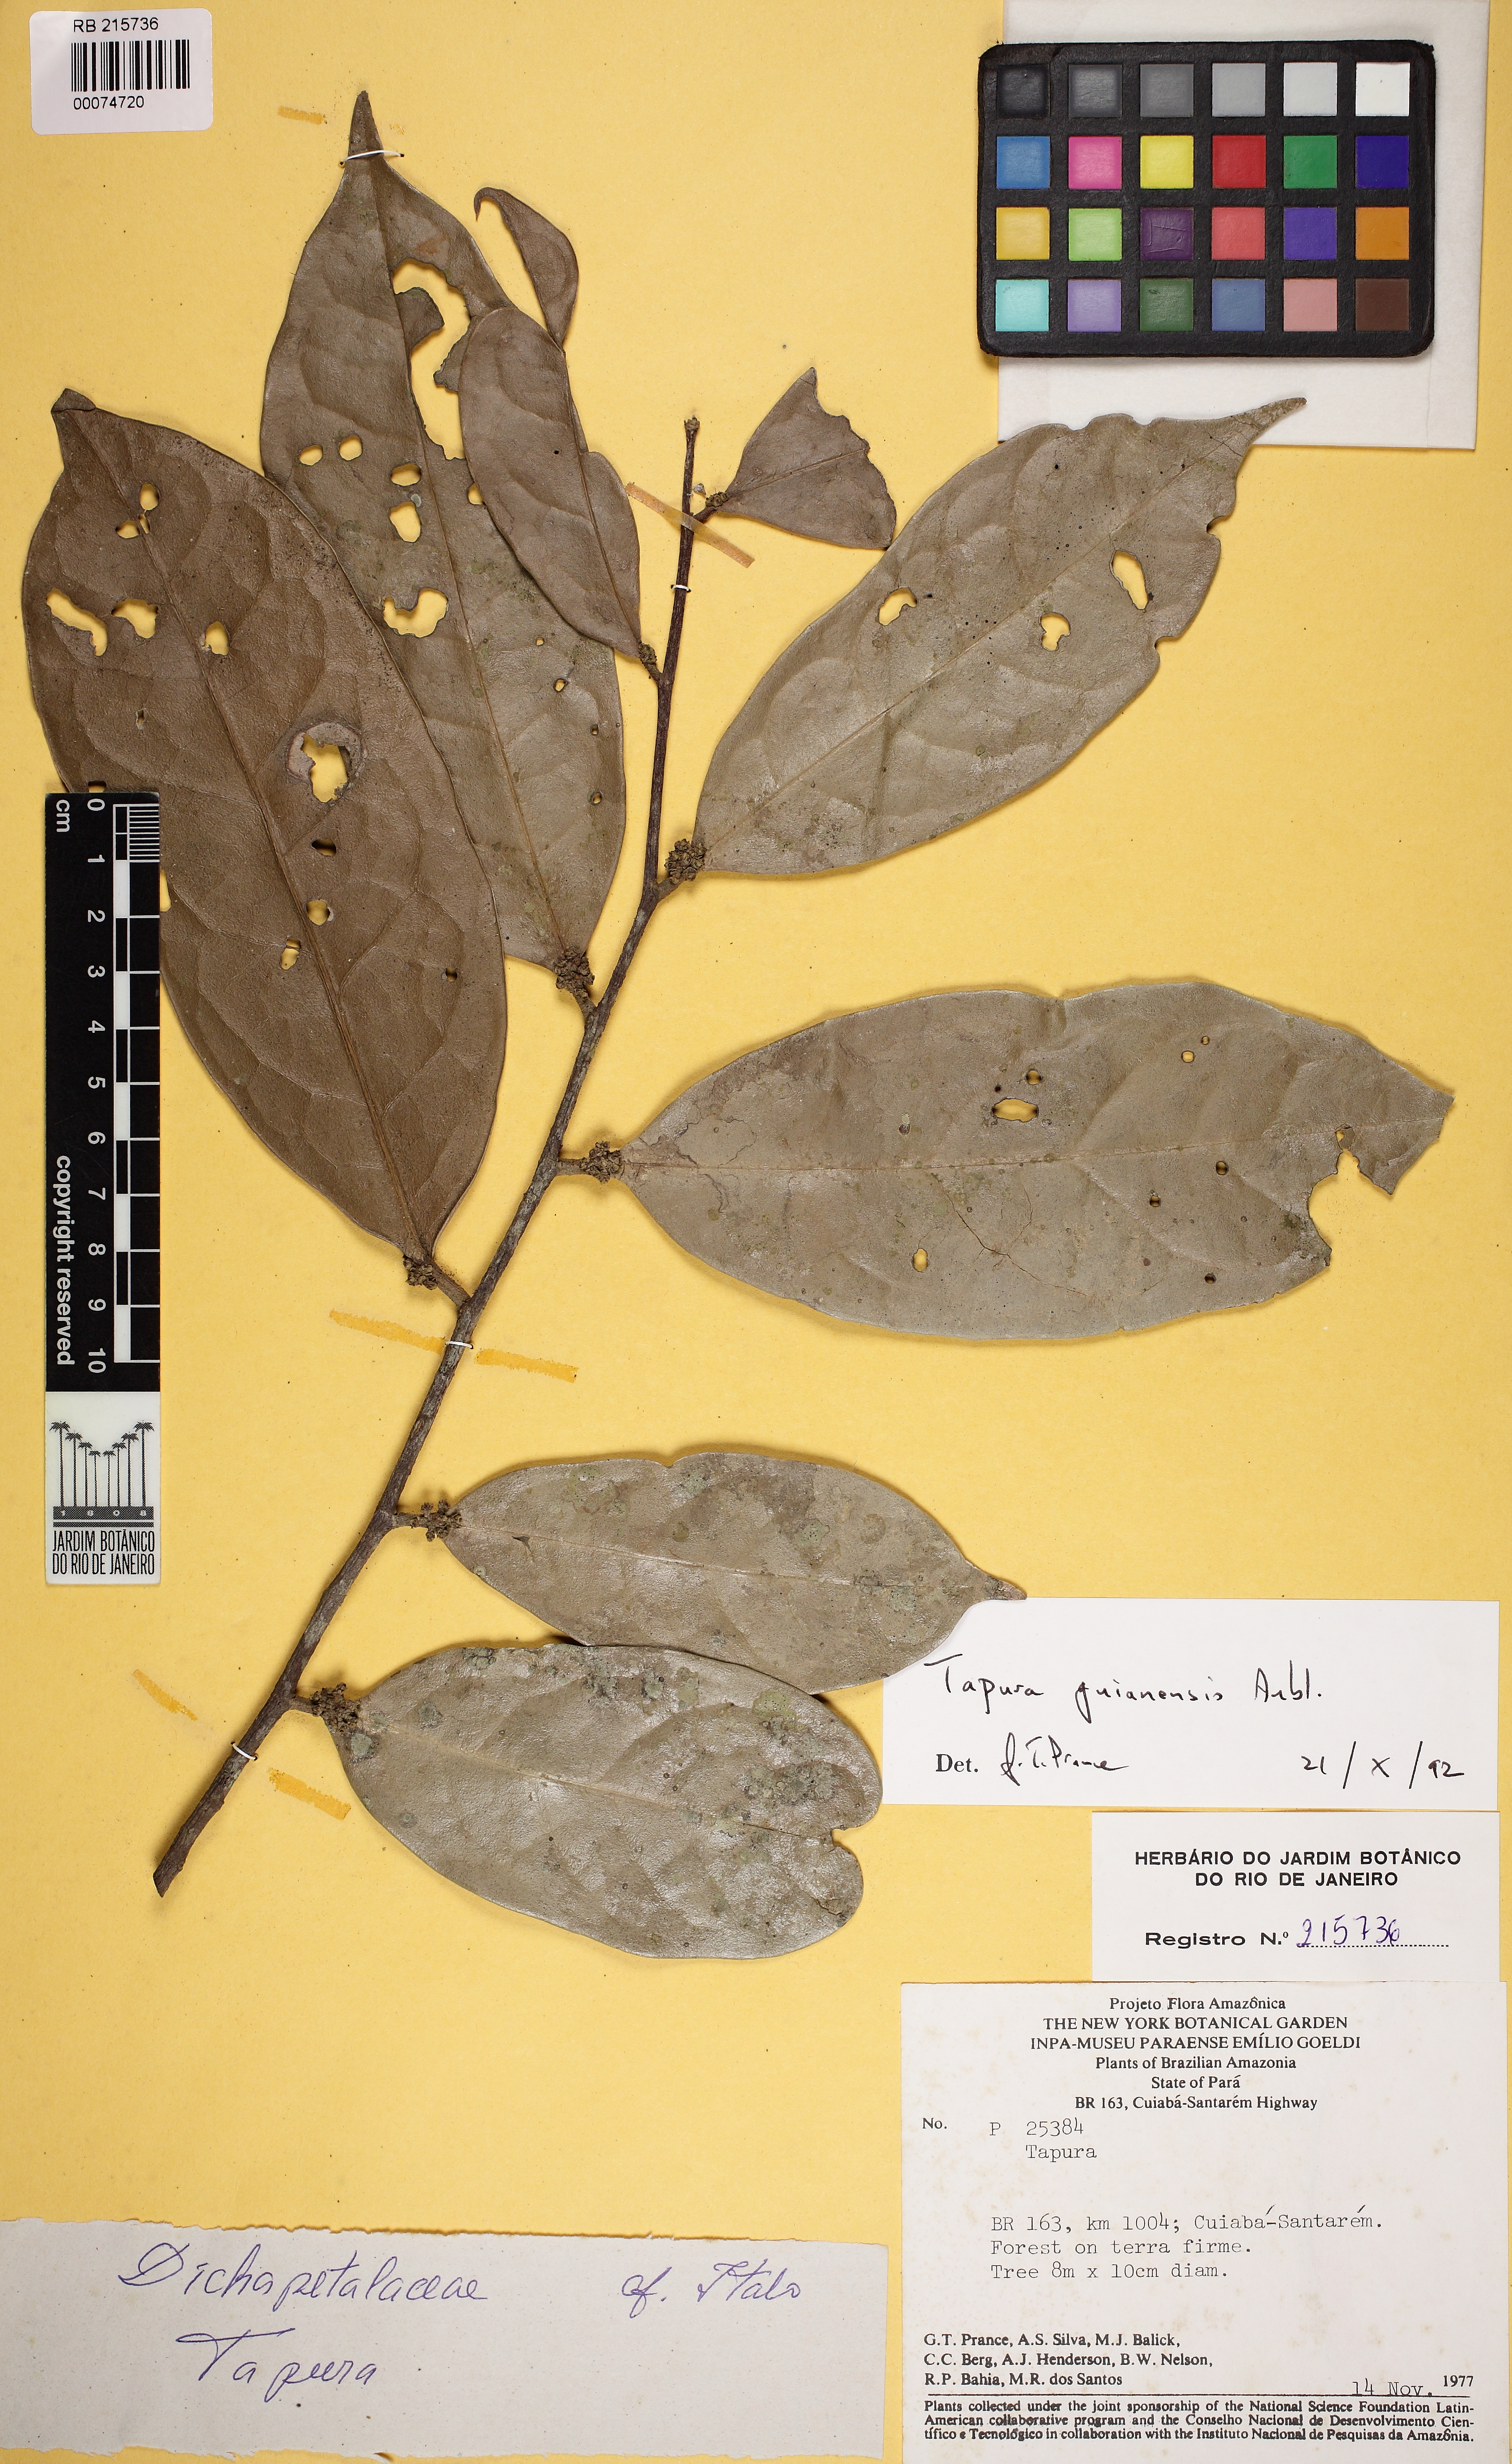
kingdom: Plantae
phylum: Tracheophyta
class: Magnoliopsida
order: Malpighiales
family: Dichapetalaceae
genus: Tapura
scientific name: Tapura guianensis
